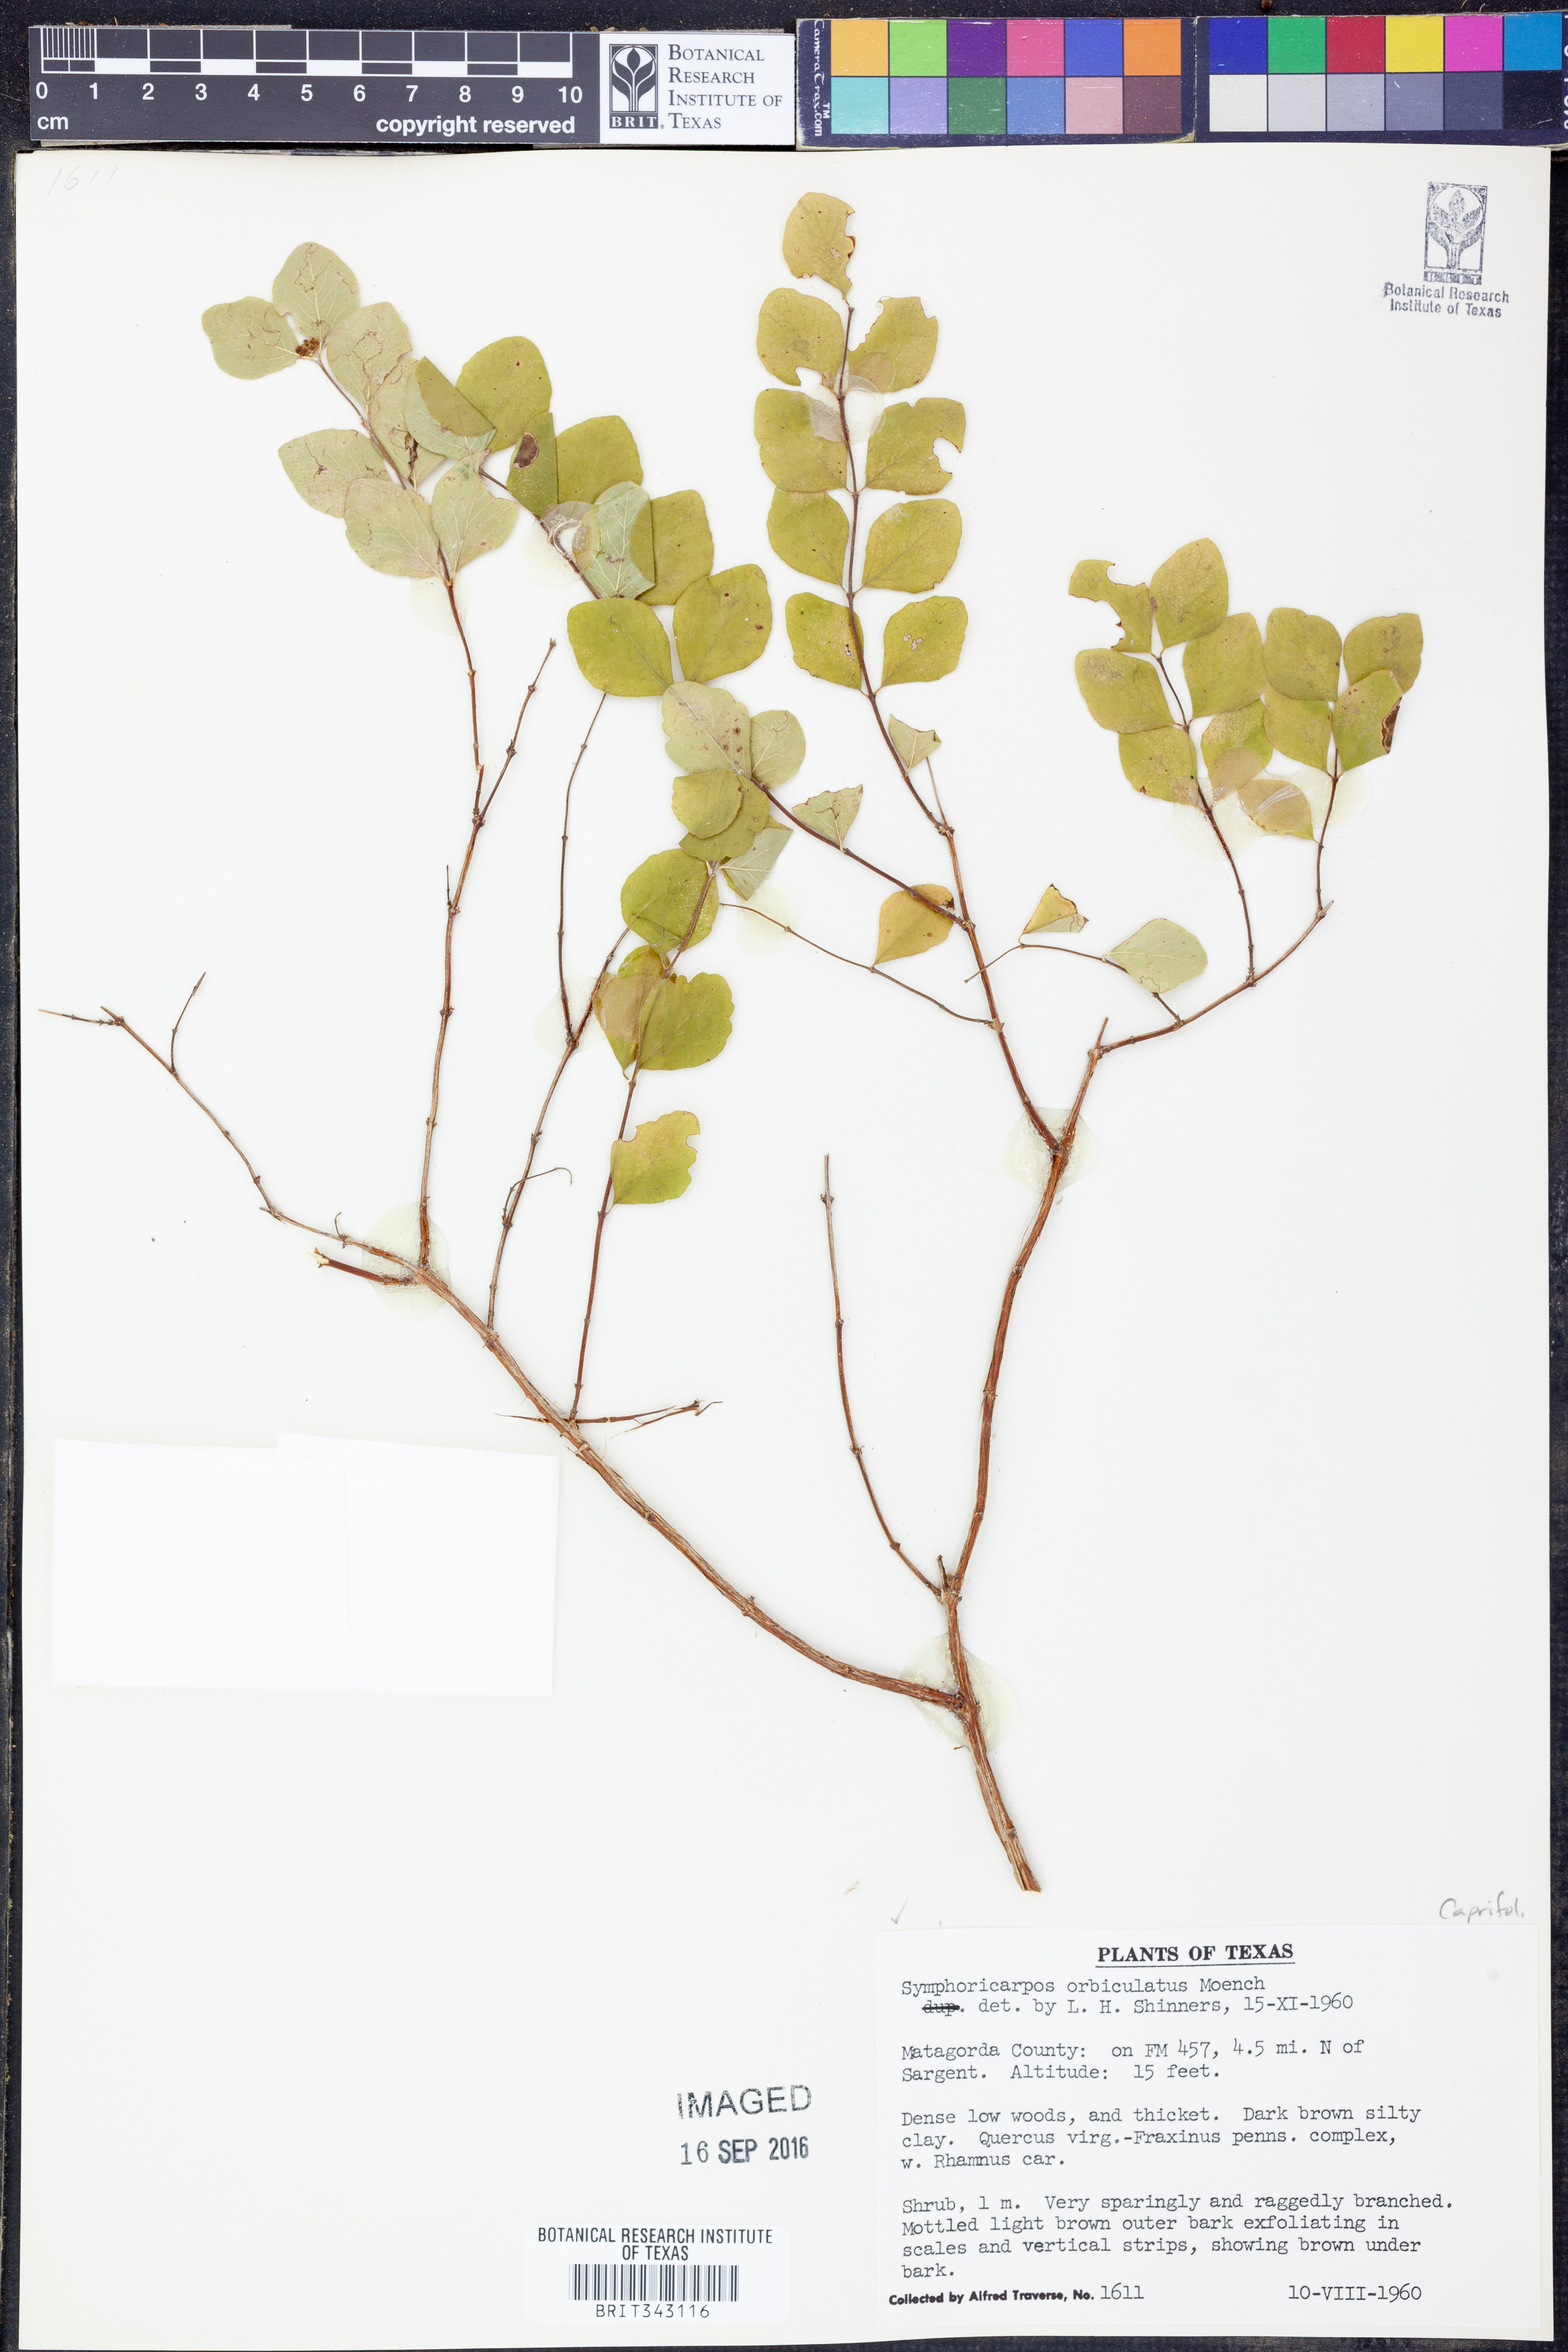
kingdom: Plantae
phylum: Tracheophyta
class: Magnoliopsida
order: Dipsacales
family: Caprifoliaceae
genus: Symphoricarpos
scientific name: Symphoricarpos orbiculatus
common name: Coralberry
